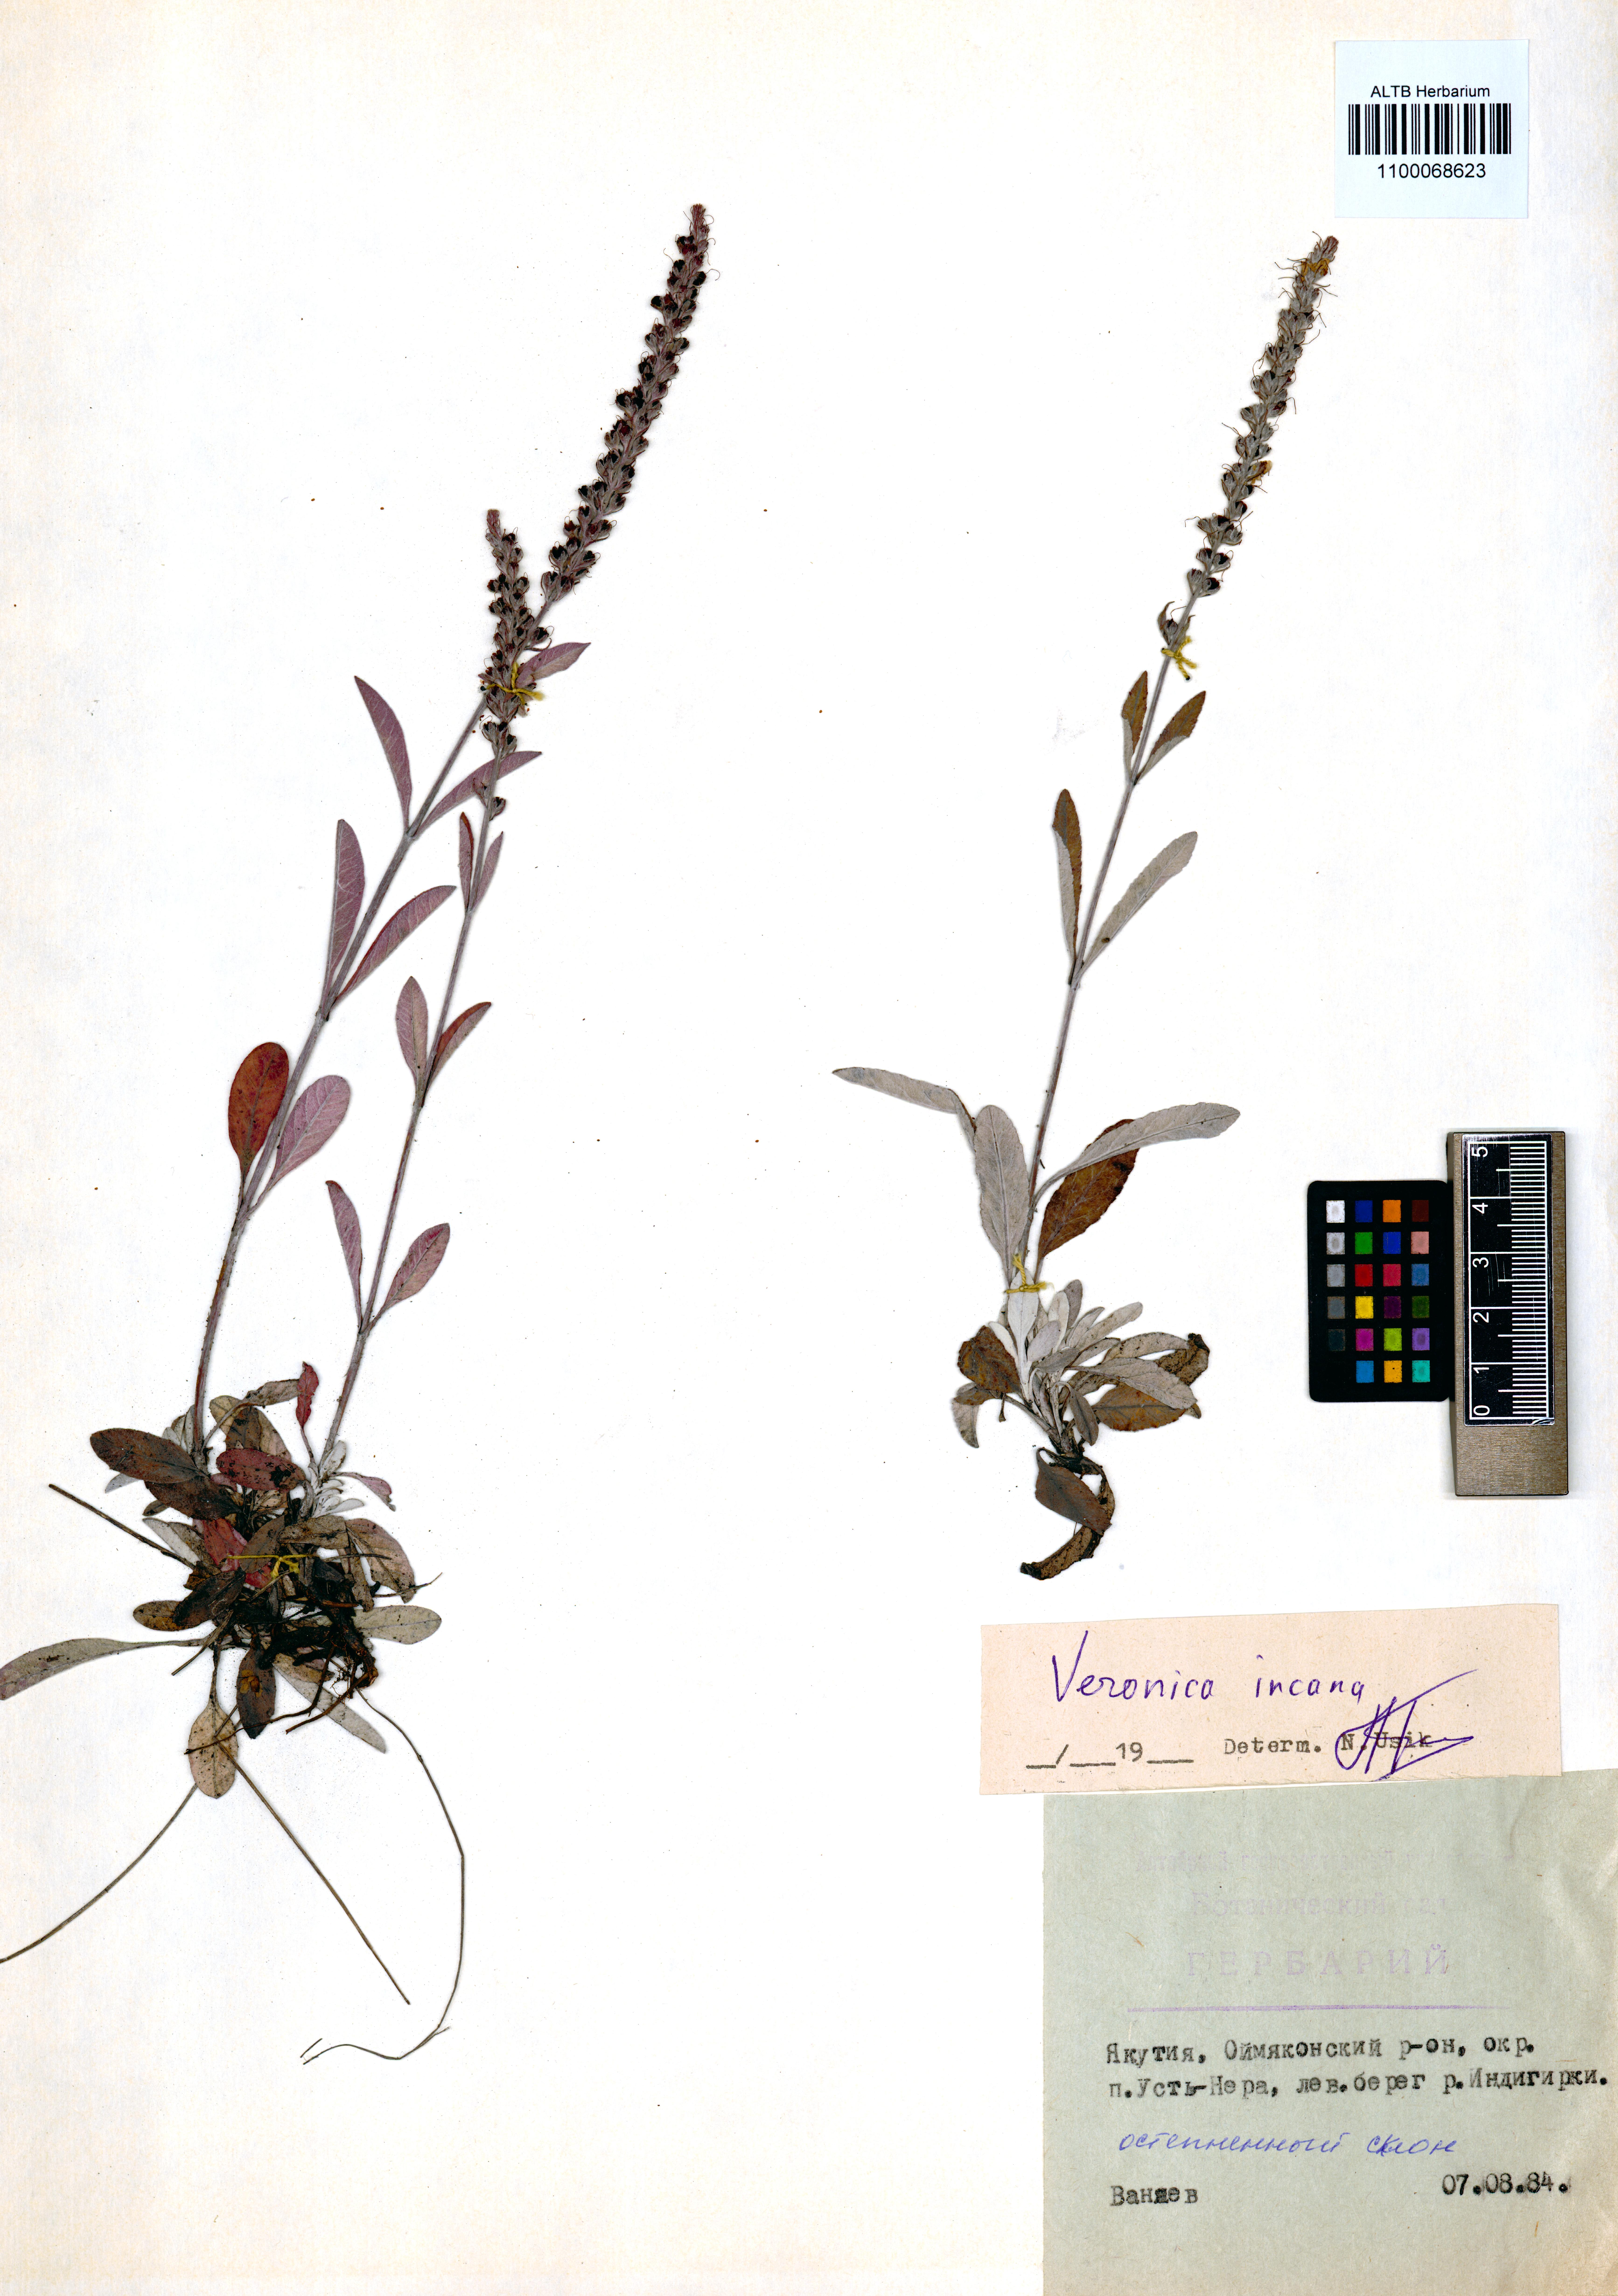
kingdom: Plantae
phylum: Tracheophyta
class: Magnoliopsida
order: Lamiales
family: Plantaginaceae
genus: Veronica
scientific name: Veronica incana
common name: Silver speedwell
